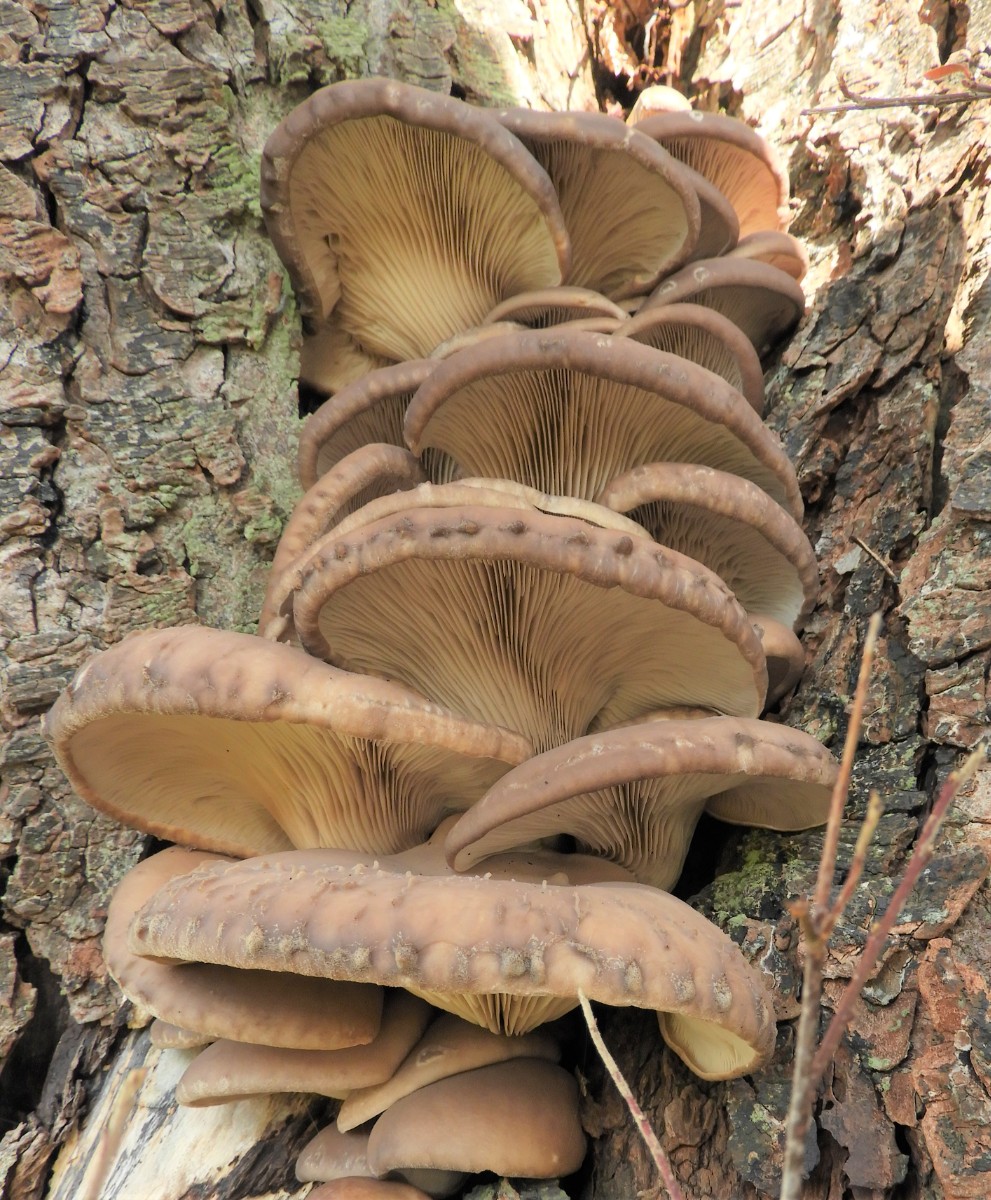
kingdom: Fungi
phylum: Basidiomycota
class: Agaricomycetes
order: Agaricales
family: Pleurotaceae
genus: Pleurotus
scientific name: Pleurotus ostreatus
